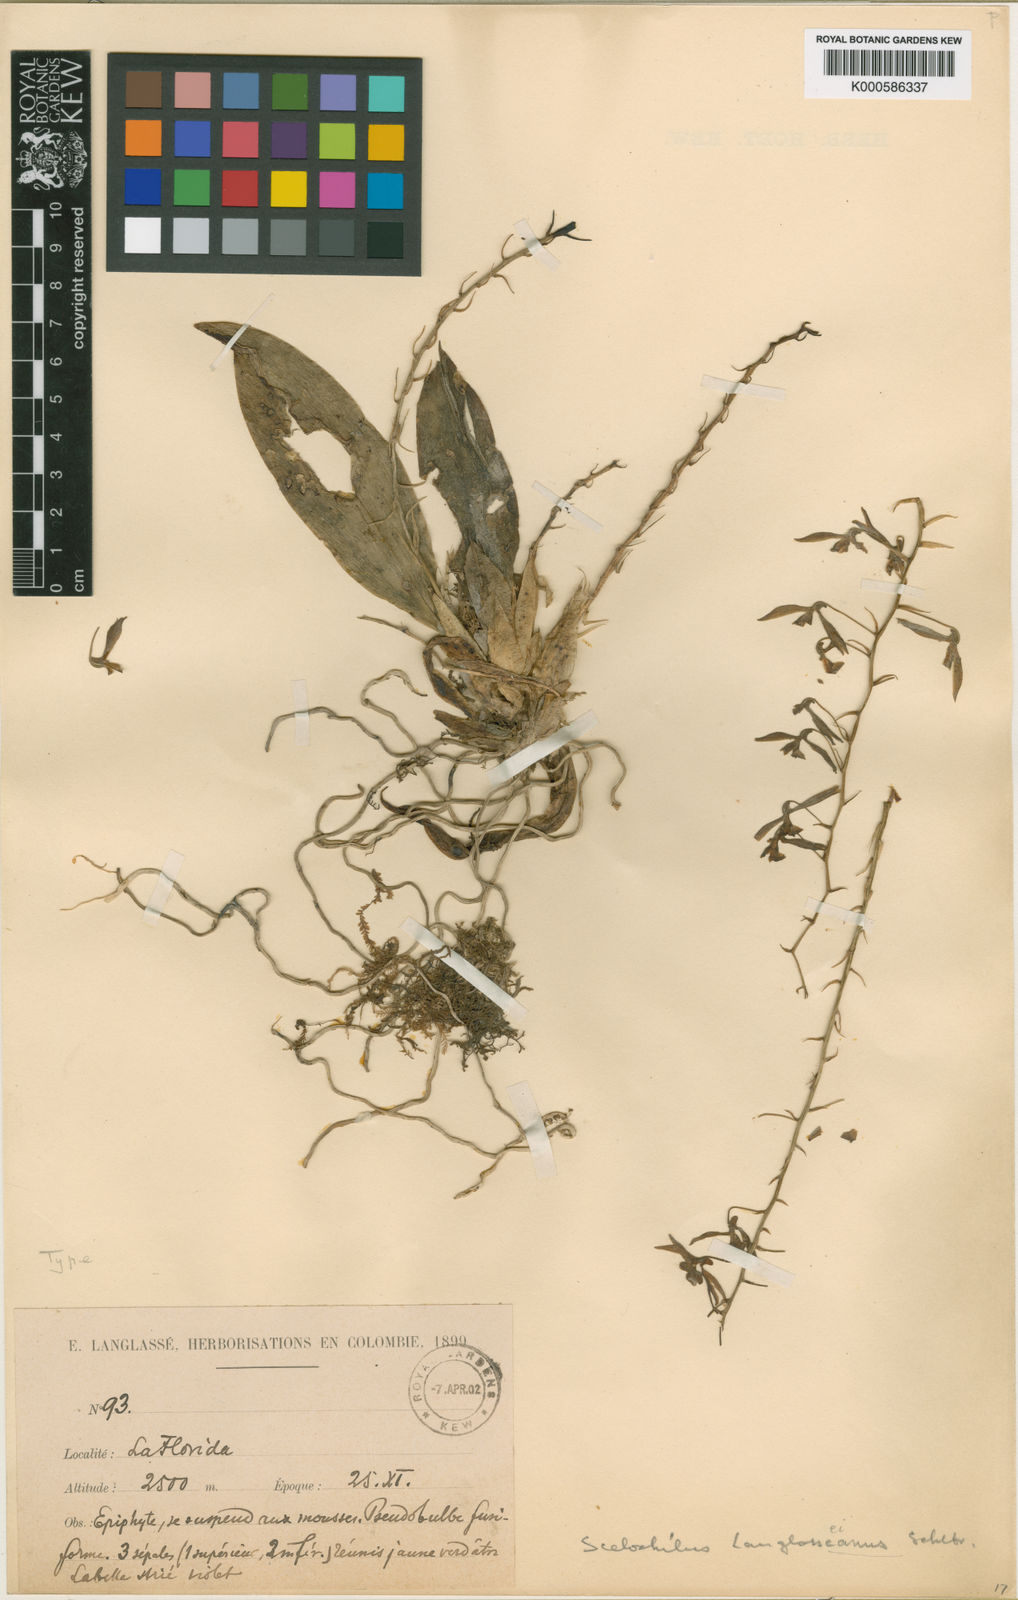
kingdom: Plantae
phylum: Tracheophyta
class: Liliopsida
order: Asparagales
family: Orchidaceae
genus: Comparettia
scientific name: Comparettia langlassei
